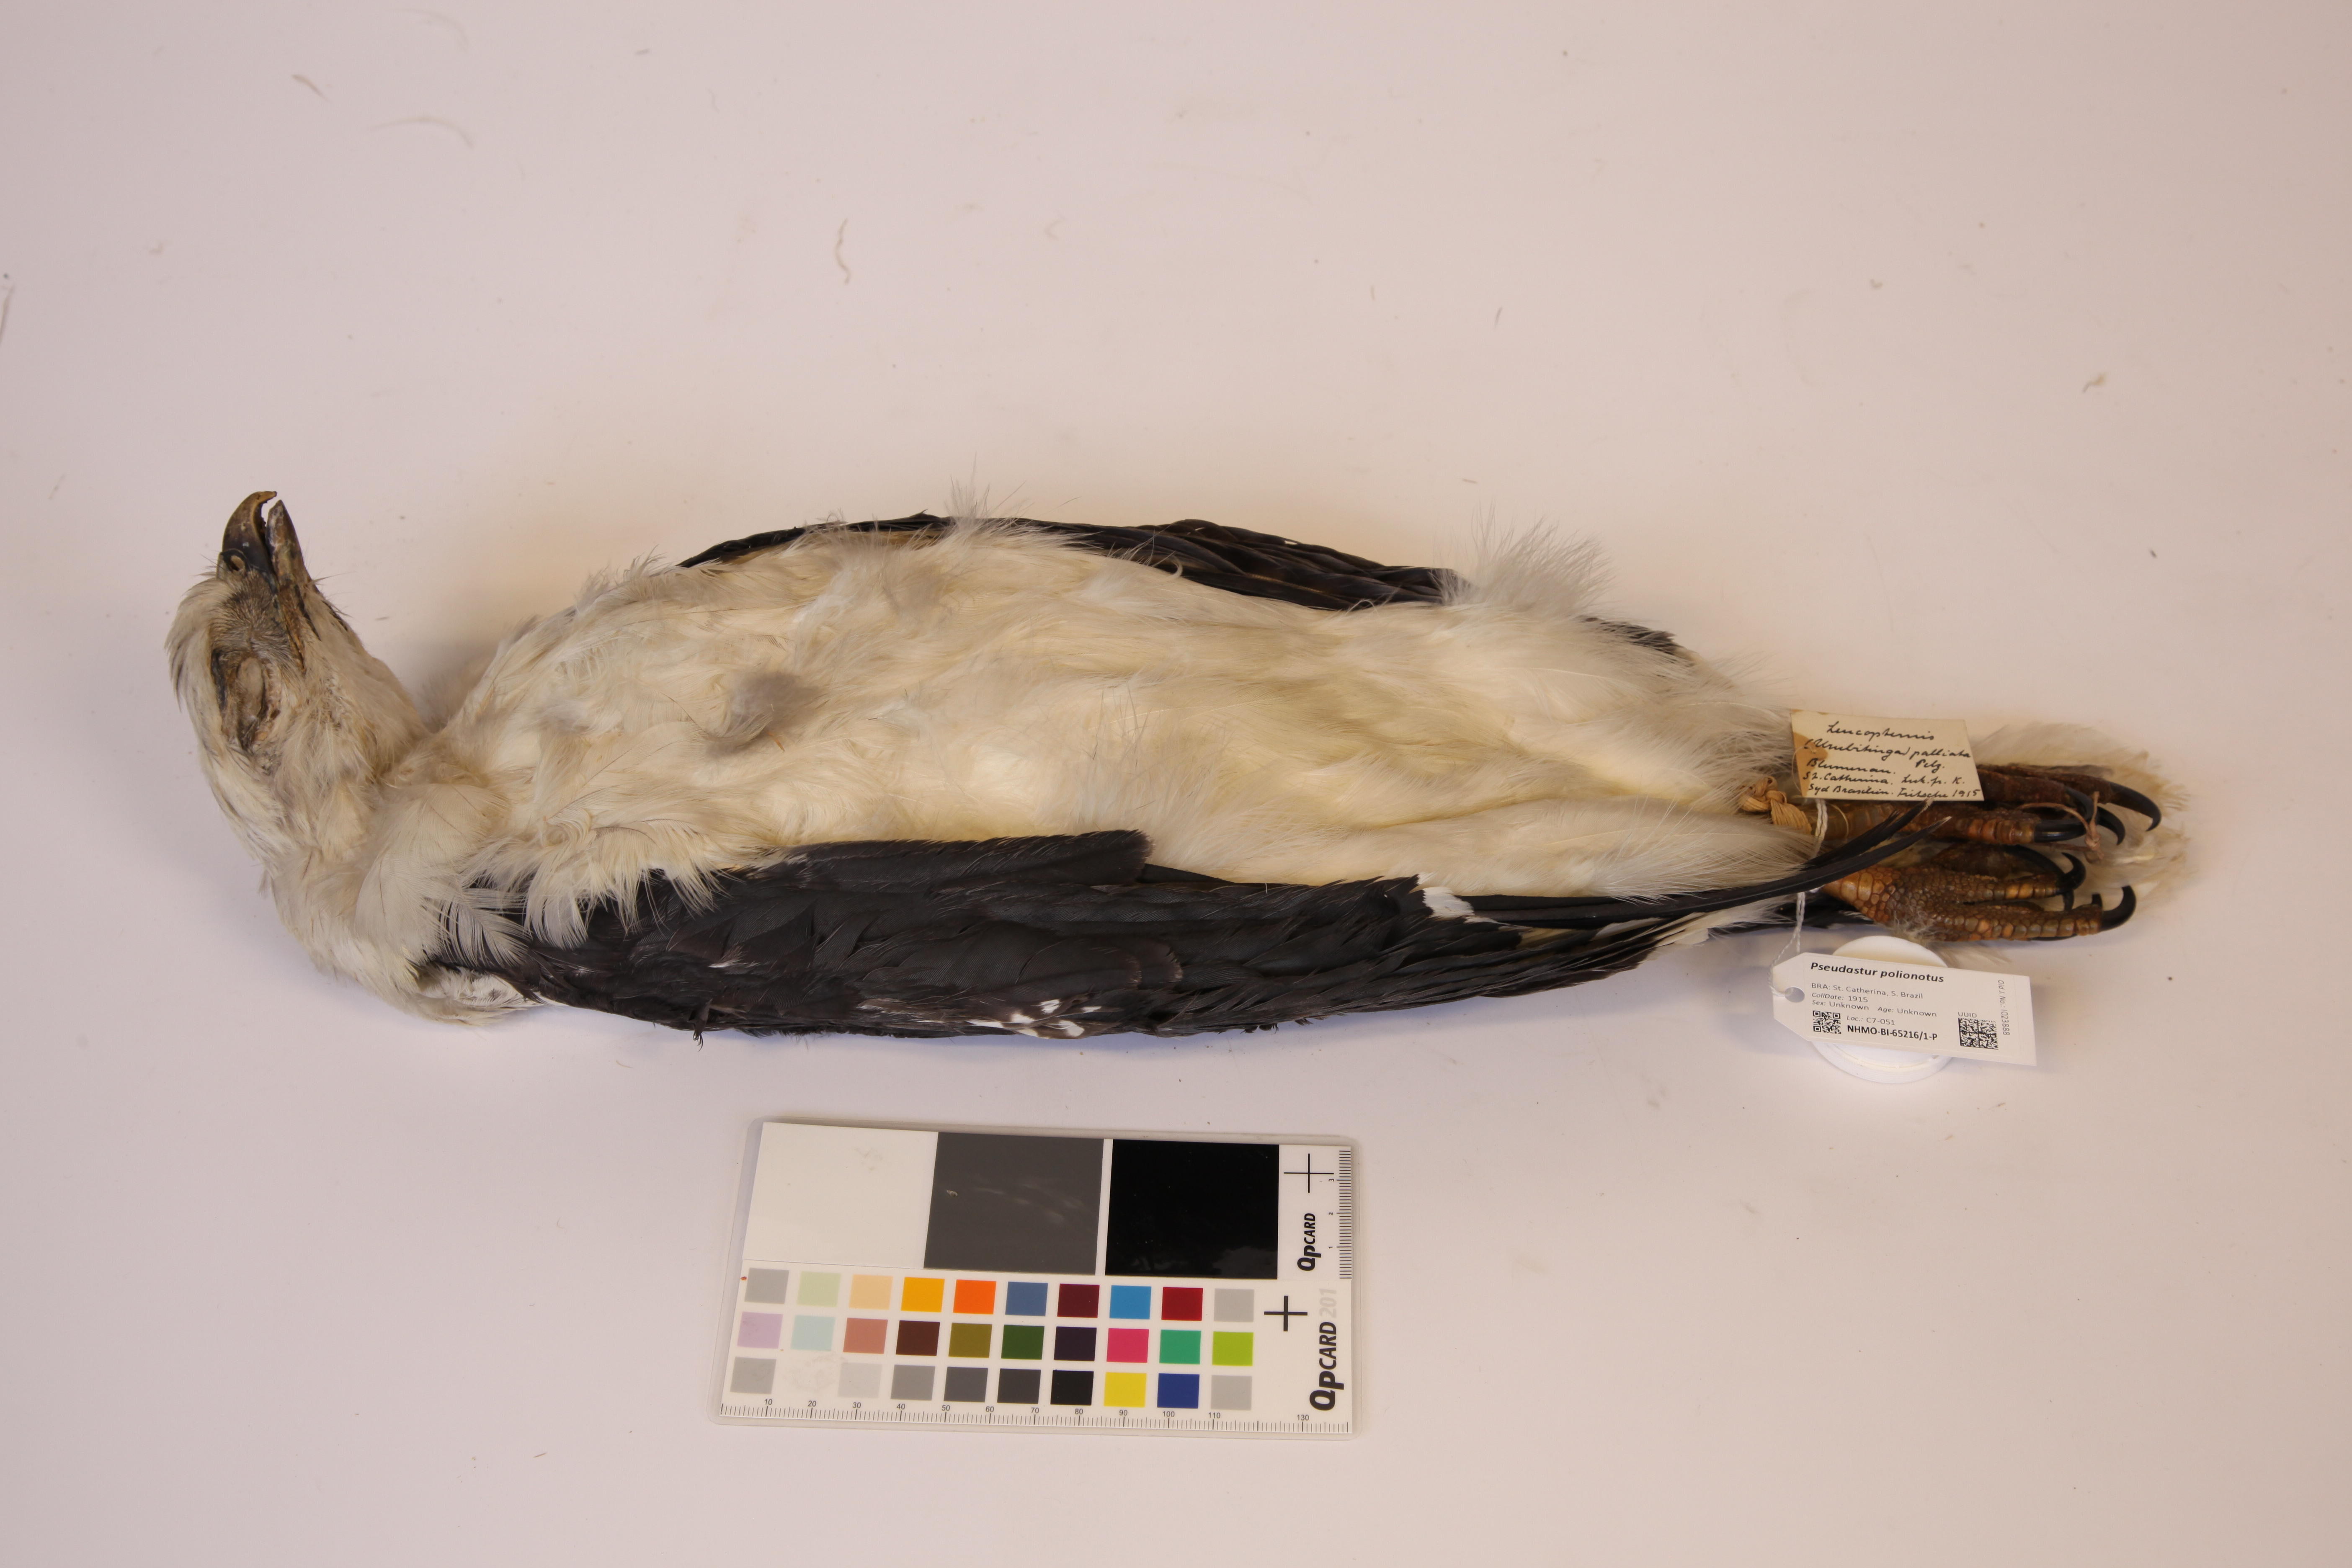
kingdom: Animalia
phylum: Chordata
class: Aves
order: Accipitriformes
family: Accipitridae
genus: Leucopternis
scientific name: Leucopternis polionotus
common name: Mantled hawk
